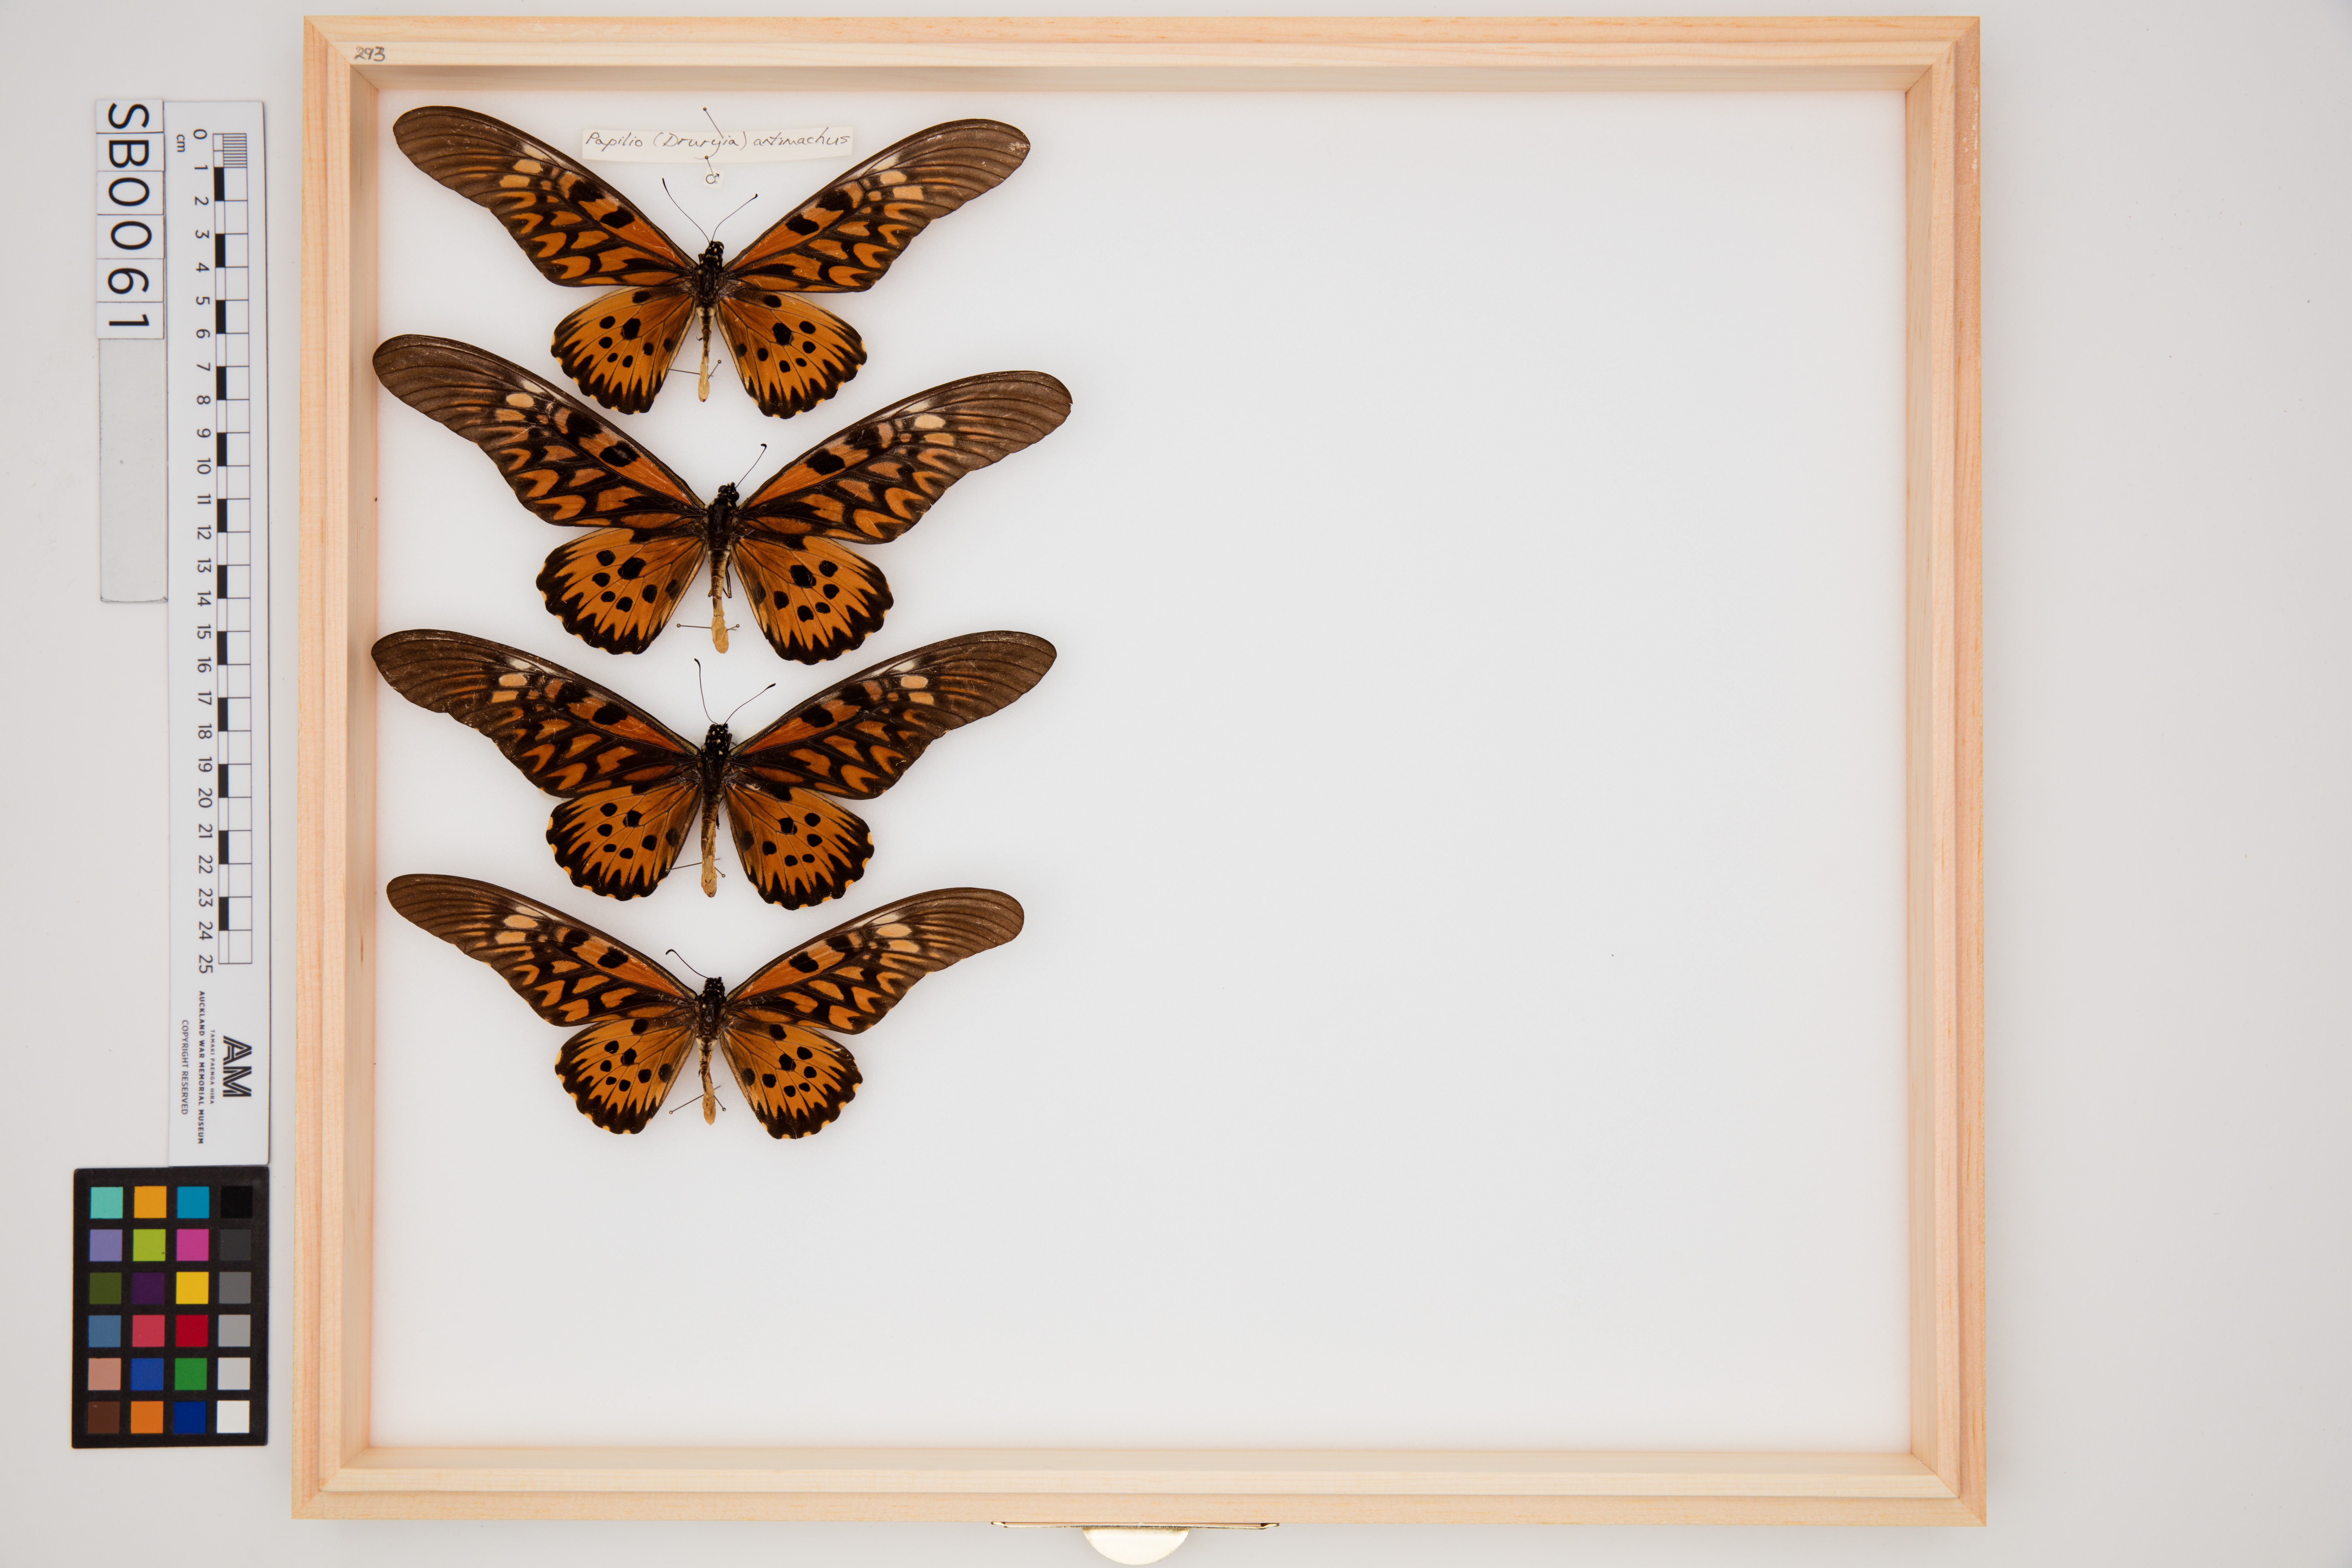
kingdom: Animalia
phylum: Arthropoda
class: Insecta
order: Lepidoptera
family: Papilionidae
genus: Papilio
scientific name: Papilio antimachus
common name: African giant swallowtail
